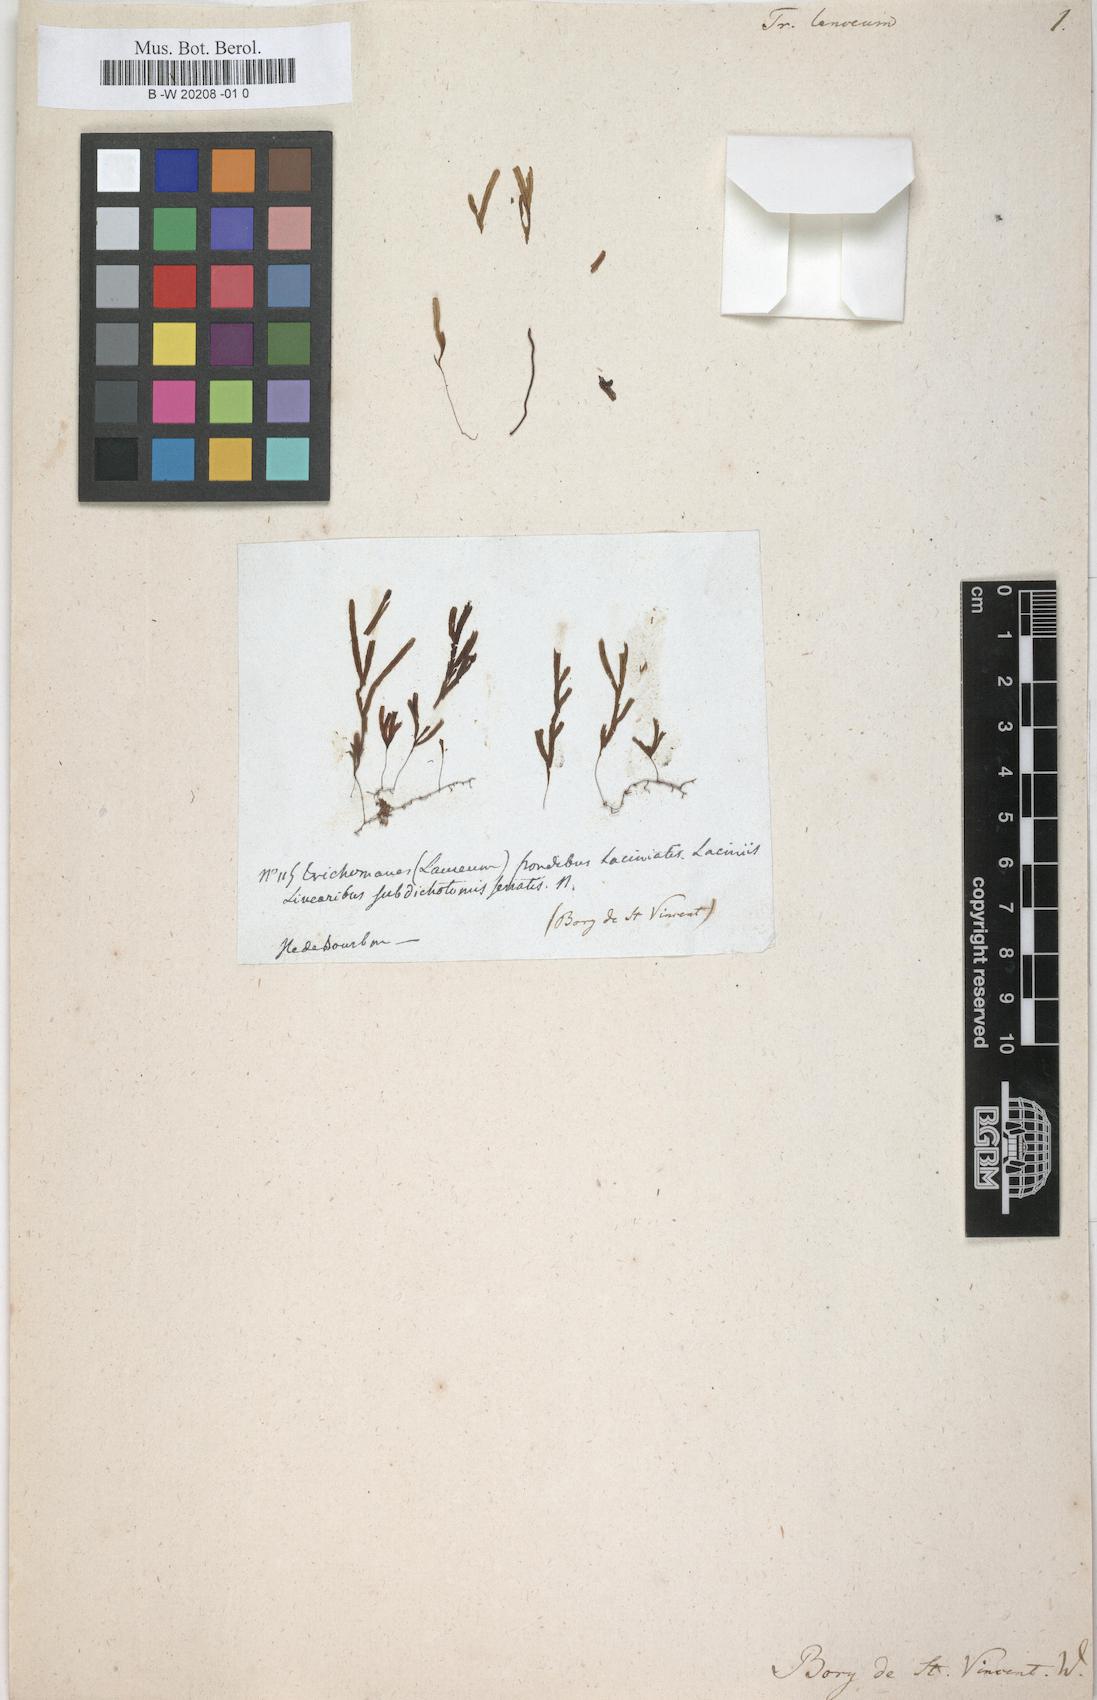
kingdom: Plantae
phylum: Tracheophyta
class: Polypodiopsida
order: Hymenophyllales
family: Hymenophyllaceae
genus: Hymenophyllum
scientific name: Hymenophyllum digitatum
